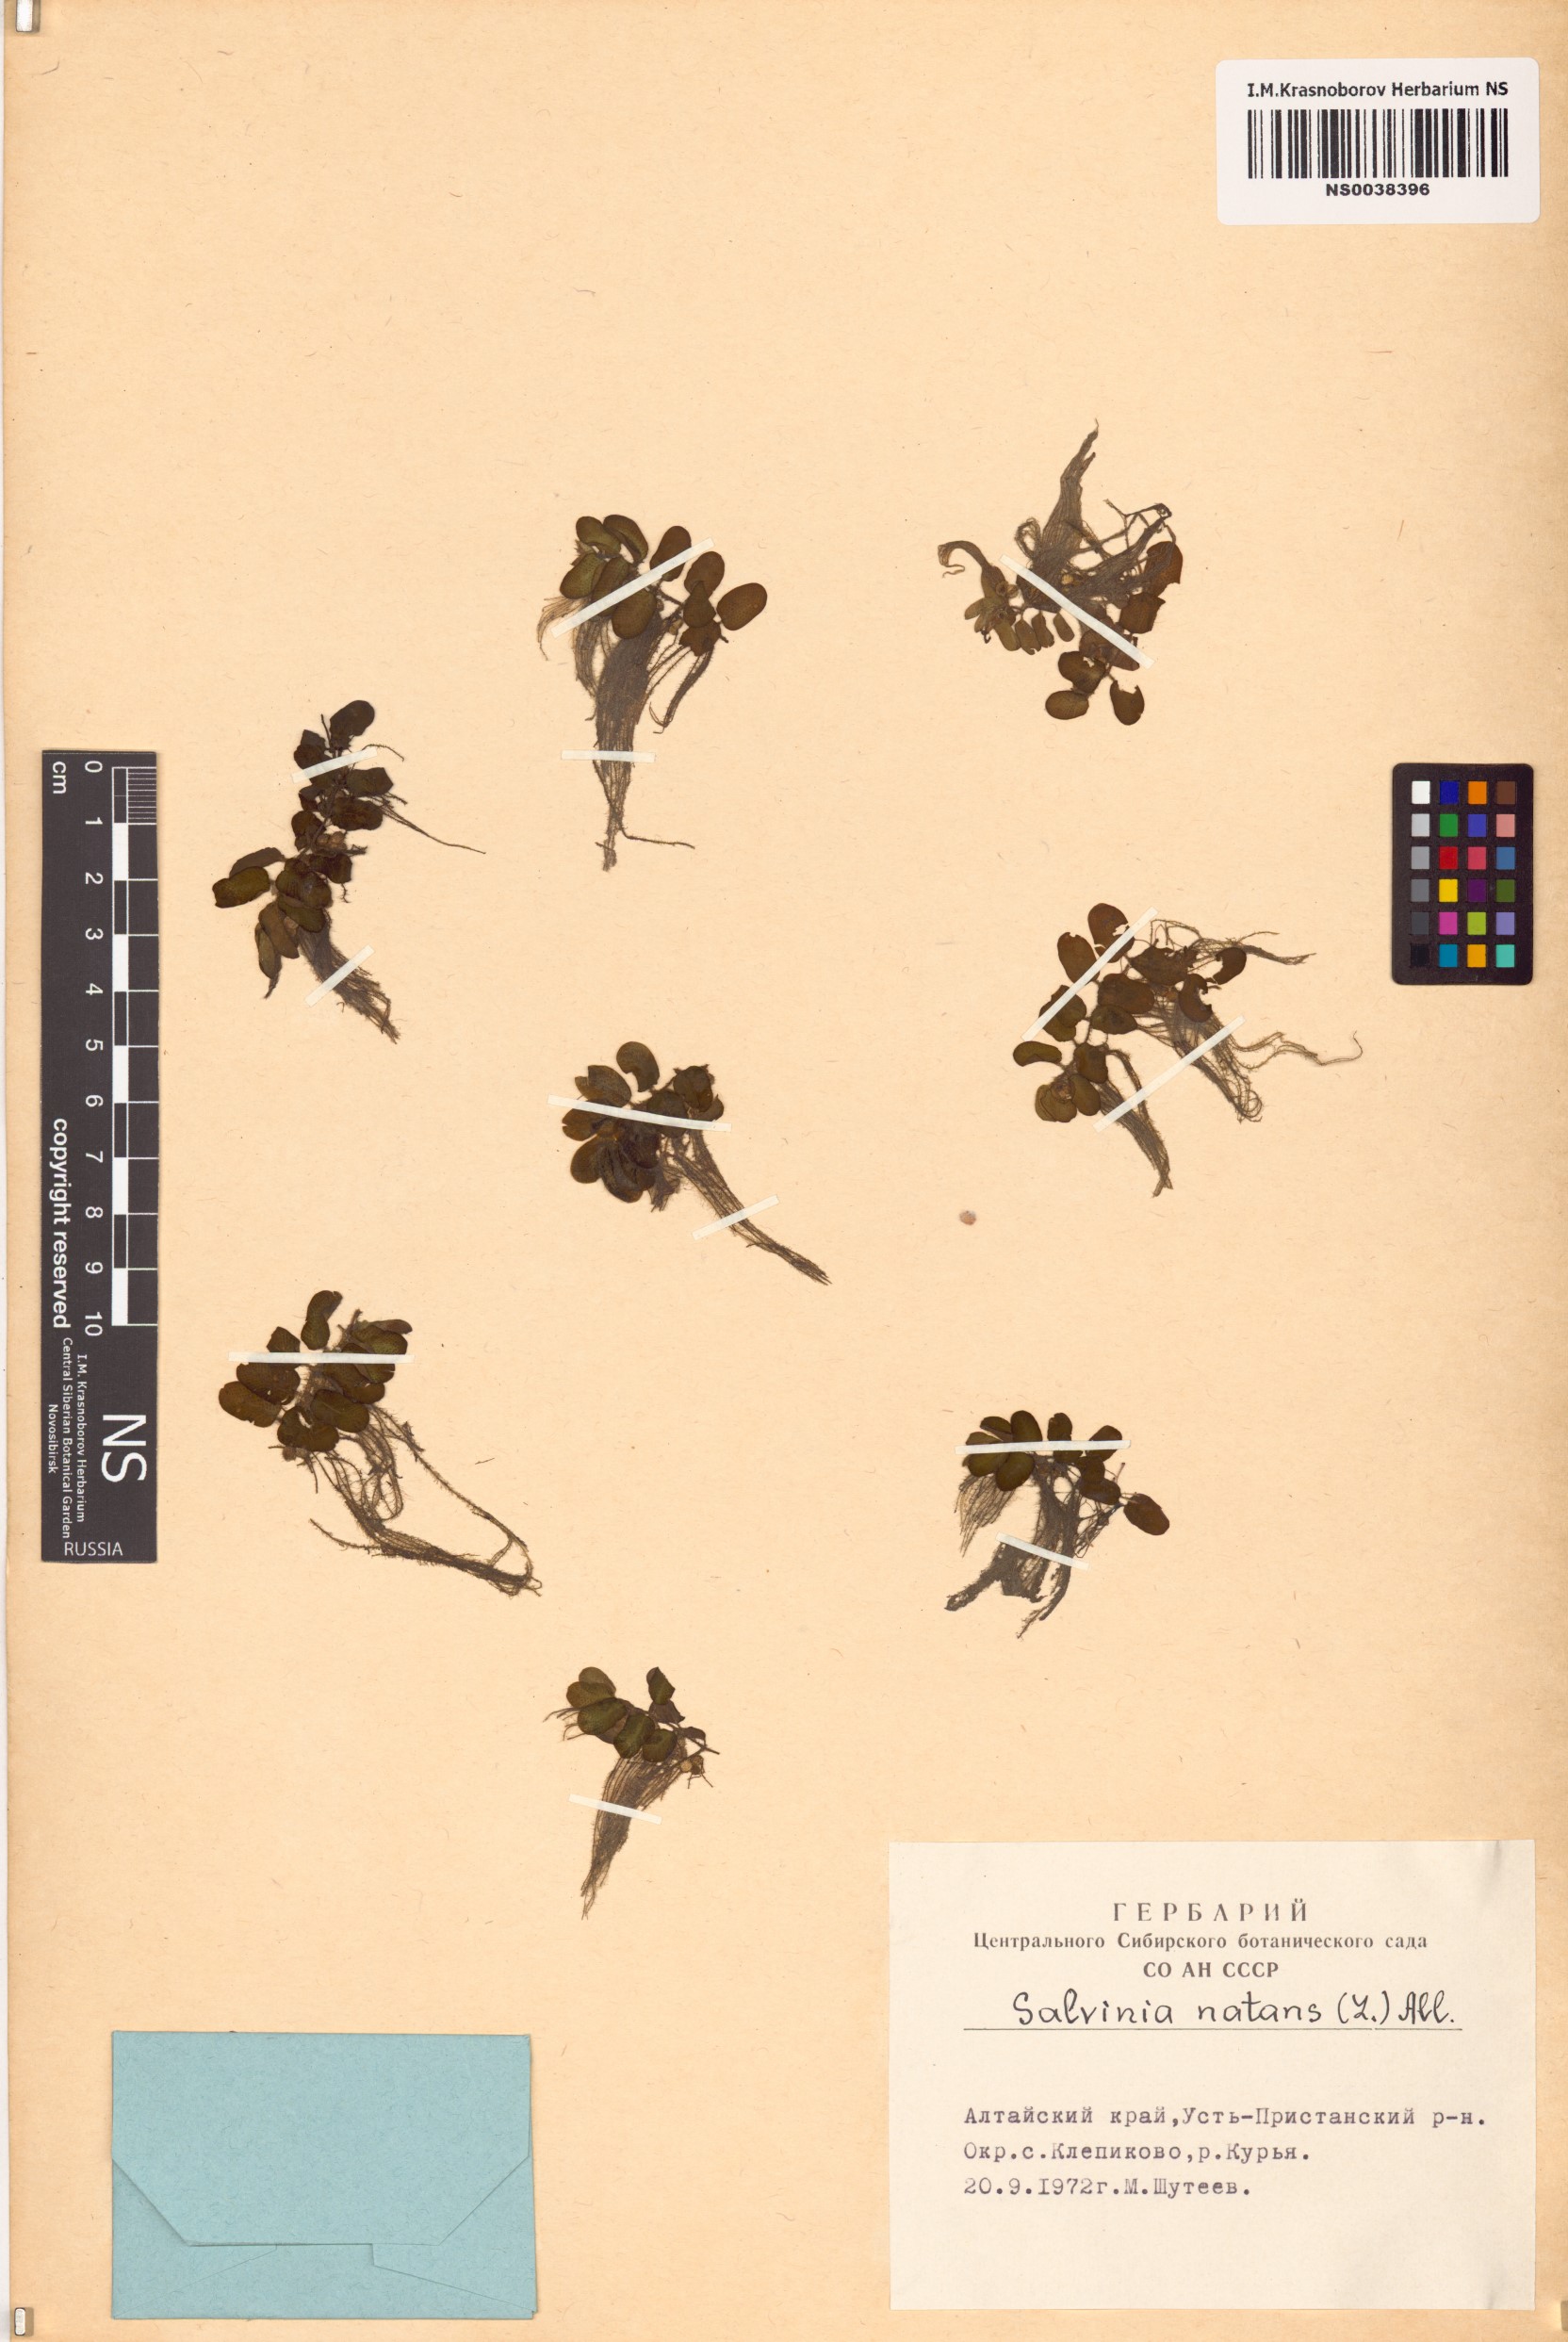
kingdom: Plantae
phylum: Tracheophyta
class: Polypodiopsida
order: Salviniales
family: Salviniaceae
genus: Salvinia
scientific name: Salvinia natans
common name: Floating fern
